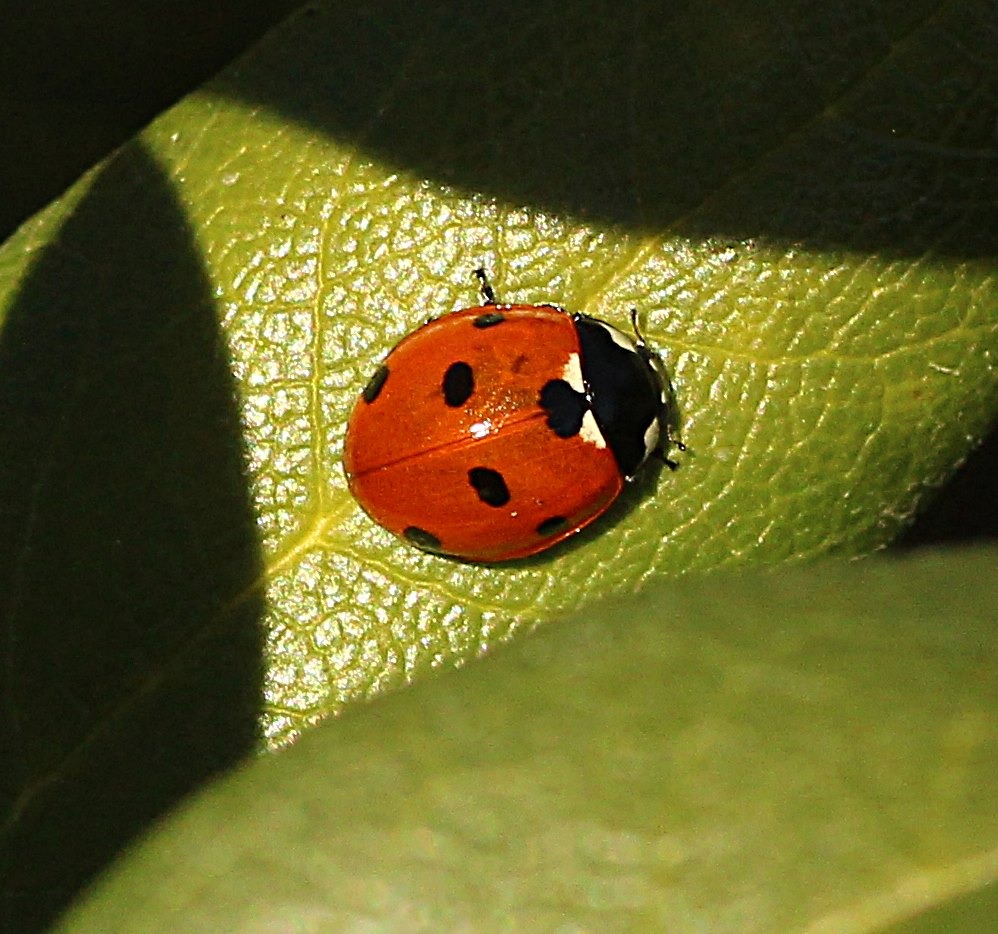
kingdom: Animalia
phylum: Arthropoda
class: Insecta
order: Coleoptera
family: Coccinellidae
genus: Coccinella
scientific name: Coccinella septempunctata
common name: Syvplettet mariehøne
